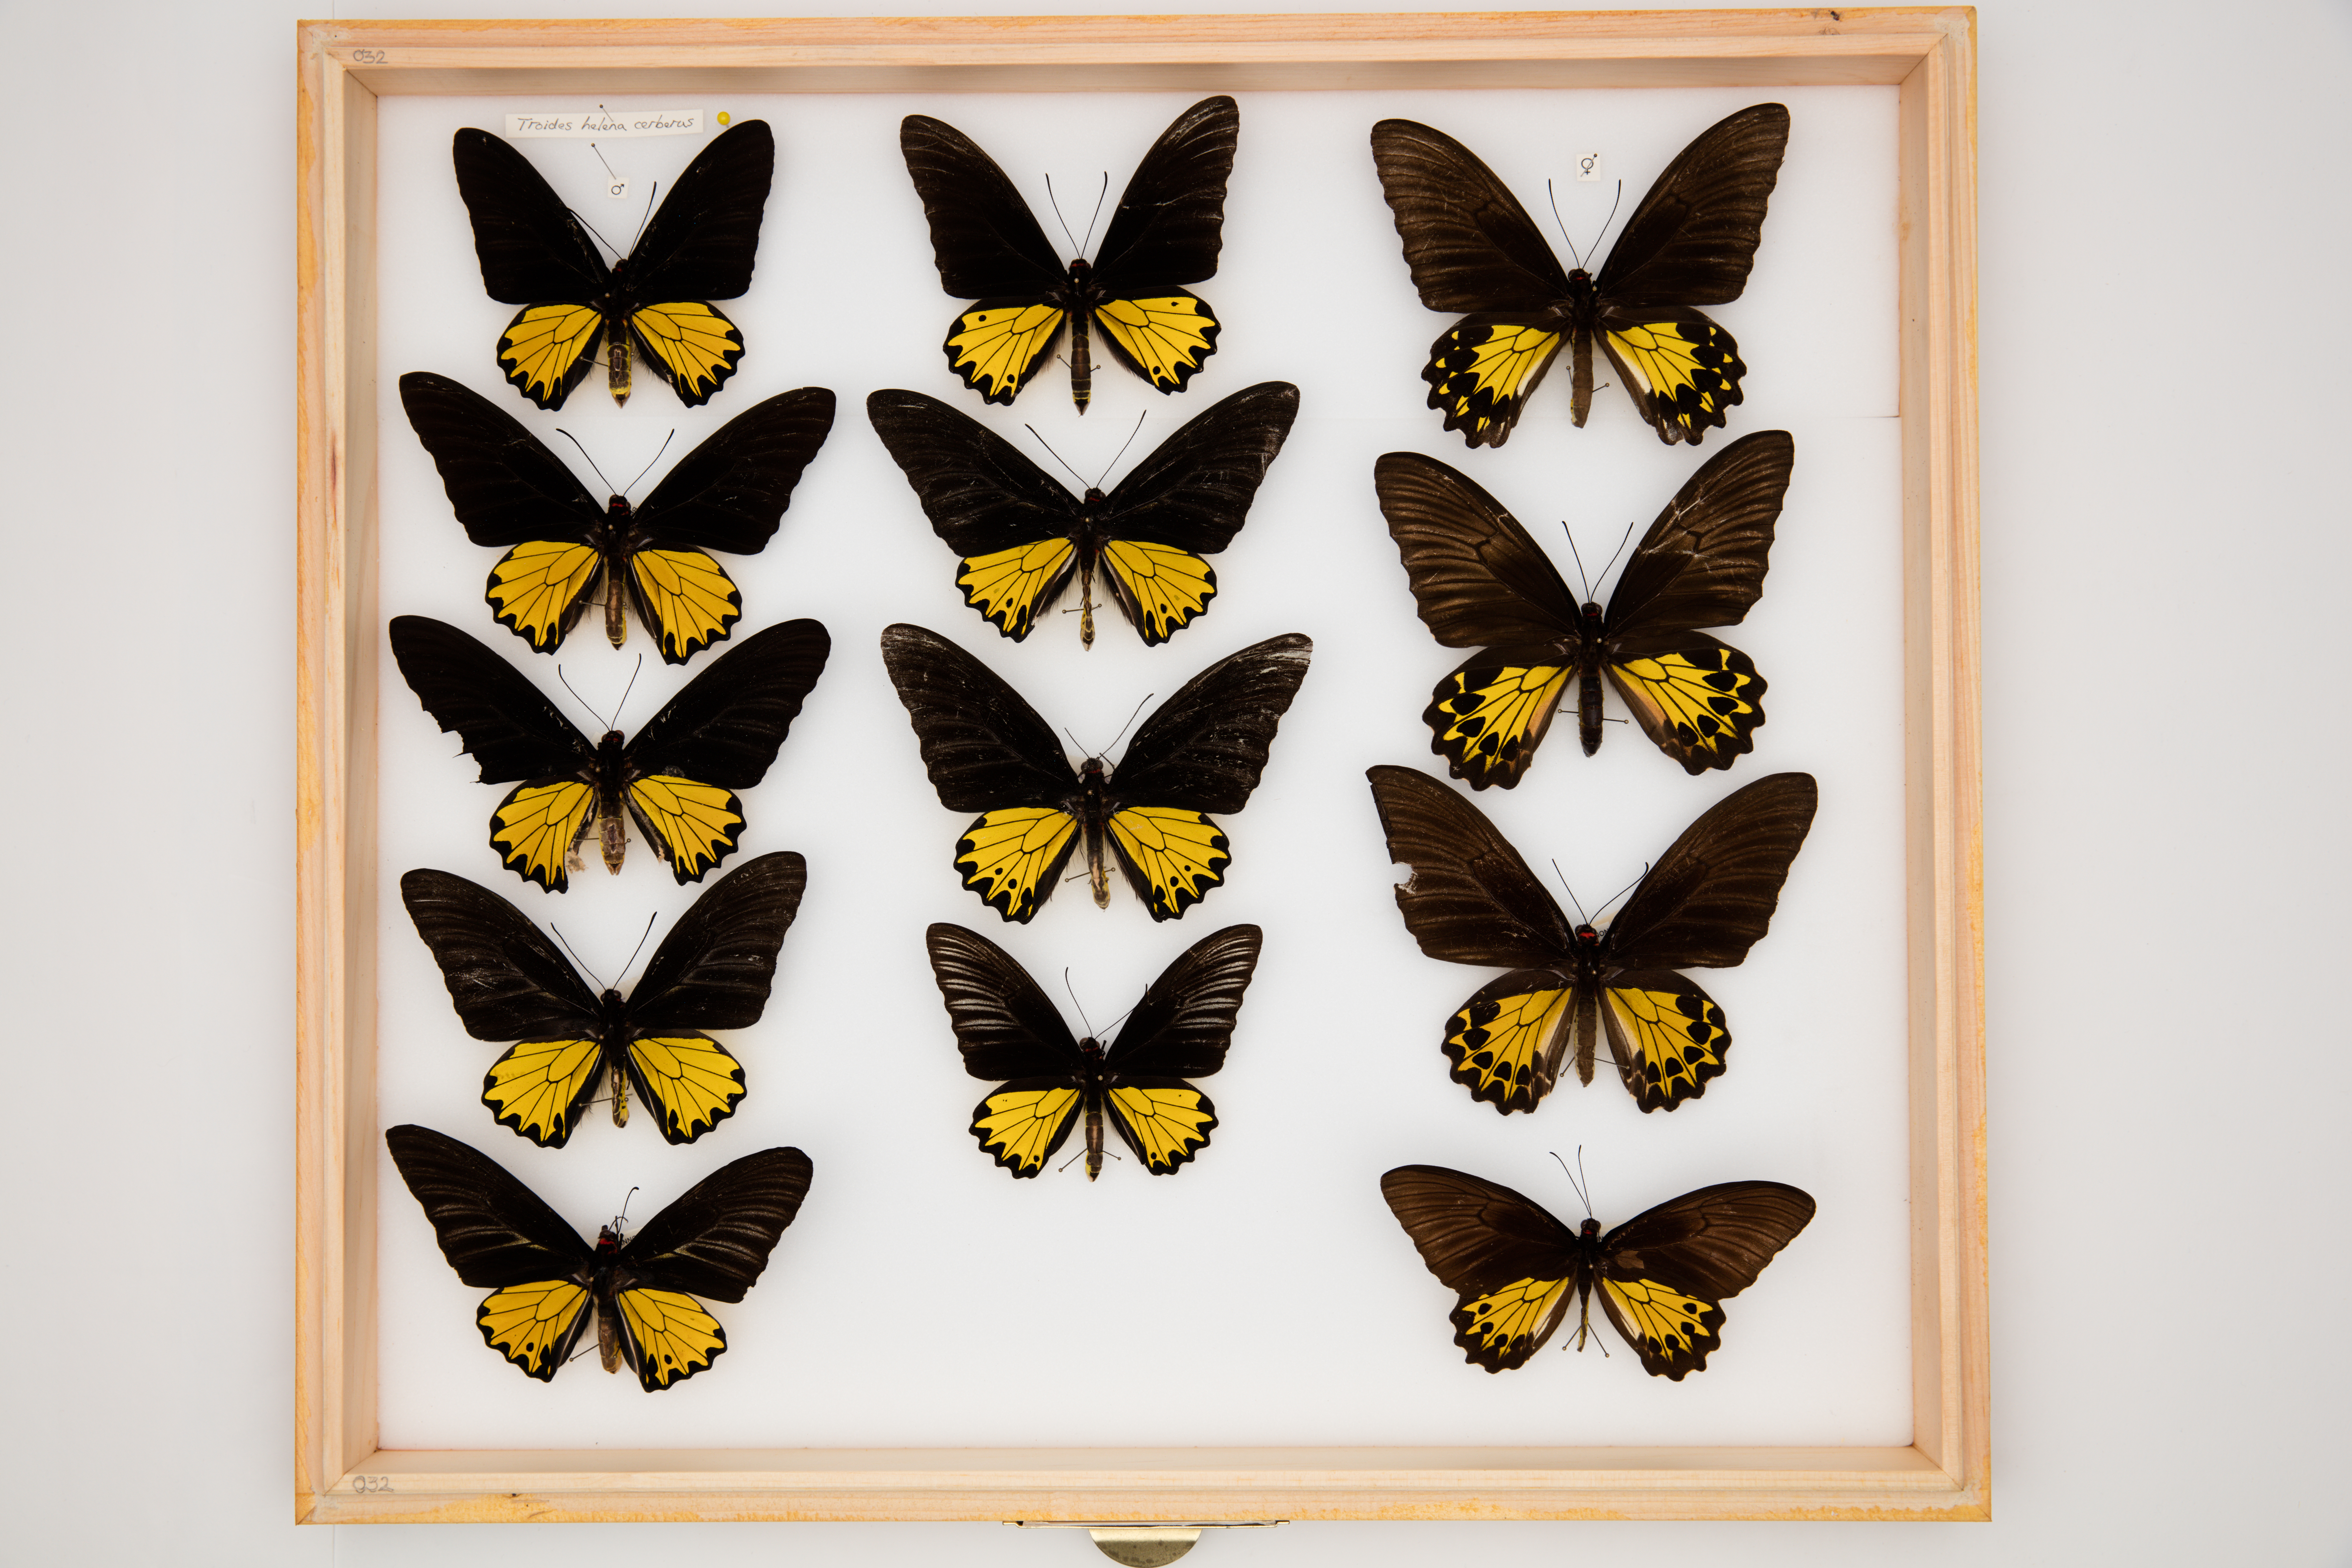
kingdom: Animalia
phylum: Arthropoda
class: Insecta
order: Lepidoptera
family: Papilionidae
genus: Troides
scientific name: Troides helena
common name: Common birdwing
